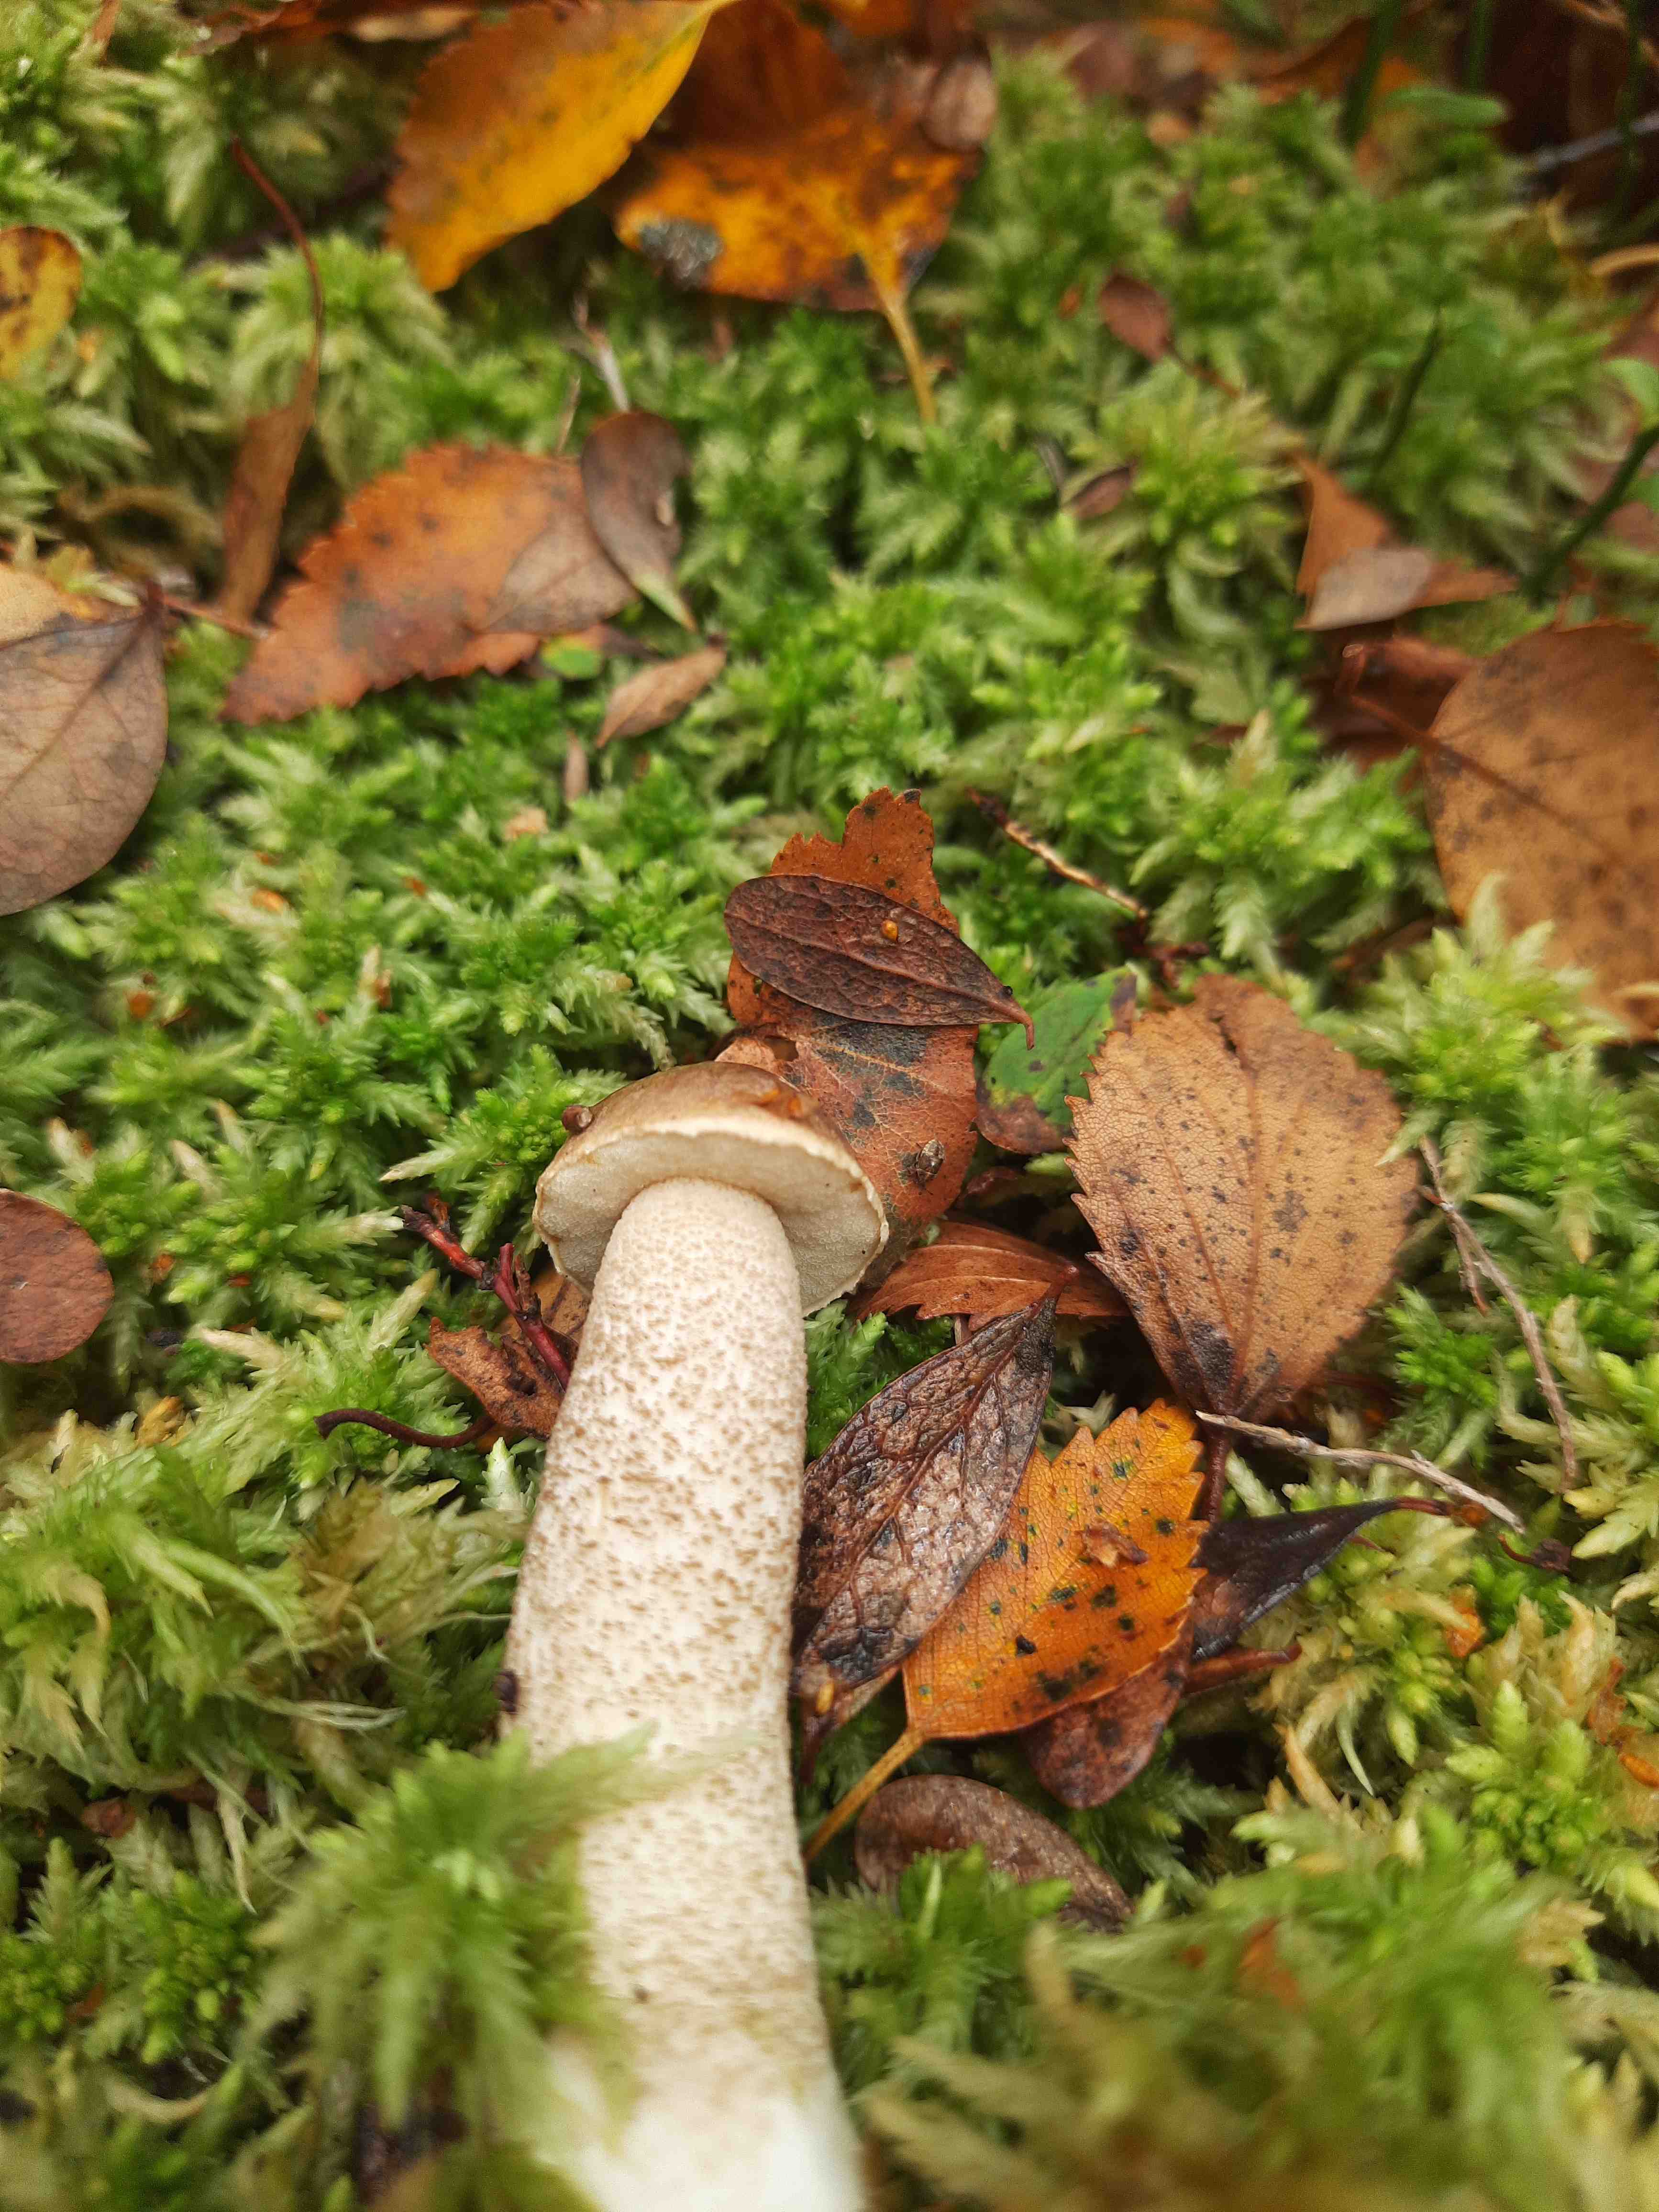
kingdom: Fungi
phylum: Basidiomycota
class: Agaricomycetes
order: Boletales
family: Boletaceae
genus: Leccinum
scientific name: Leccinum
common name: skælrørhat
